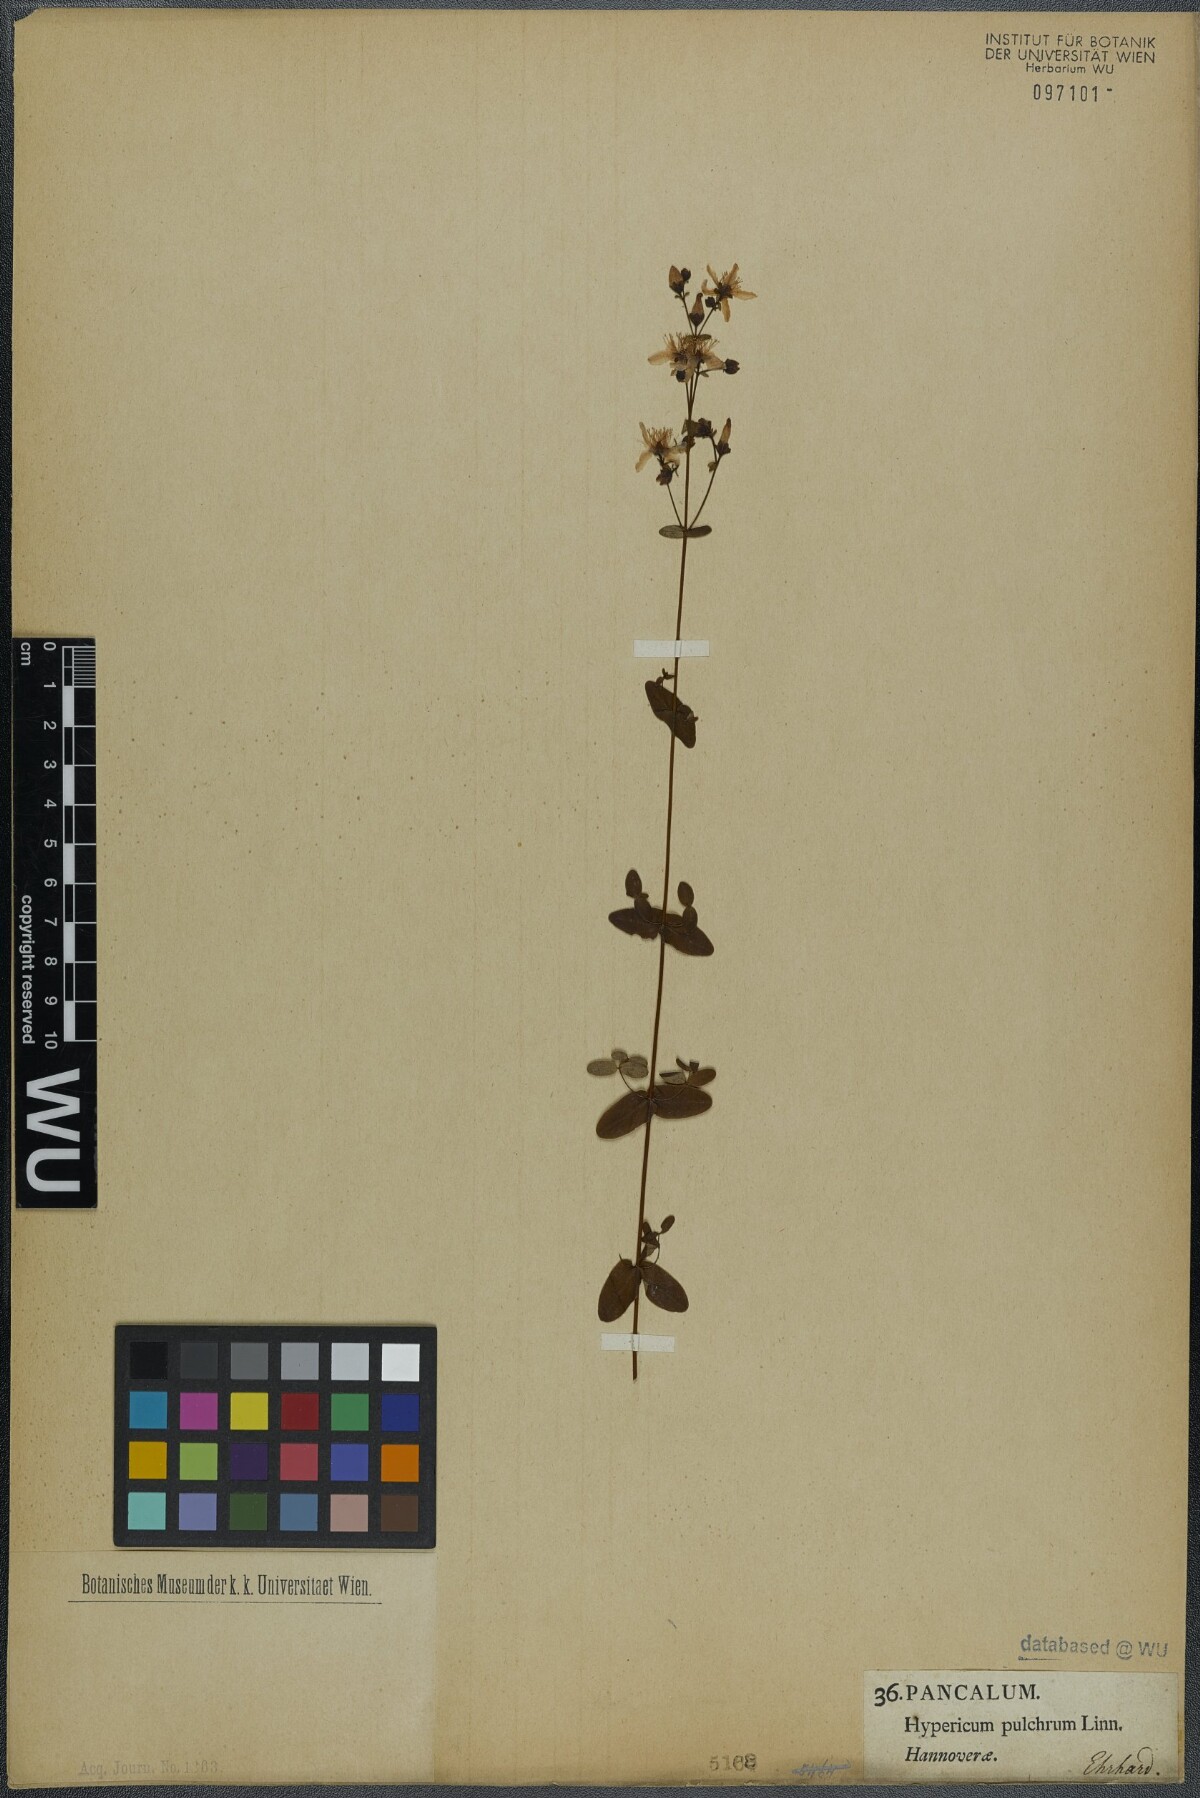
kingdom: Plantae
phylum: Tracheophyta
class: Magnoliopsida
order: Malpighiales
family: Hypericaceae
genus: Hypericum
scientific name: Hypericum pulchrum
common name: Slender st. john's-wort
